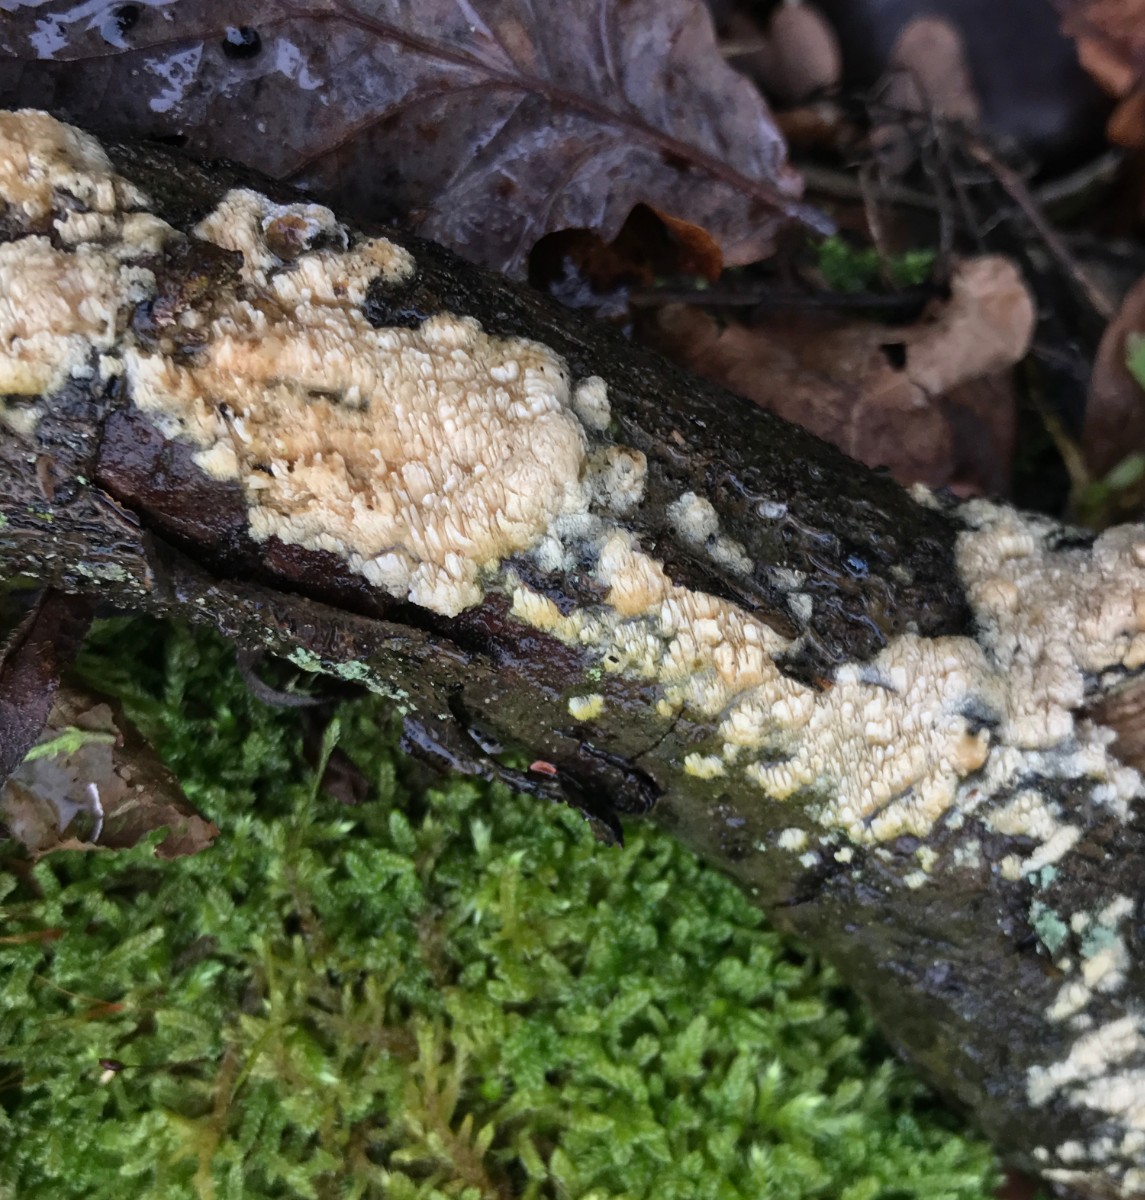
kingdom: Fungi
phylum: Basidiomycota
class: Agaricomycetes
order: Hymenochaetales
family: Schizoporaceae
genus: Xylodon
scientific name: Xylodon
